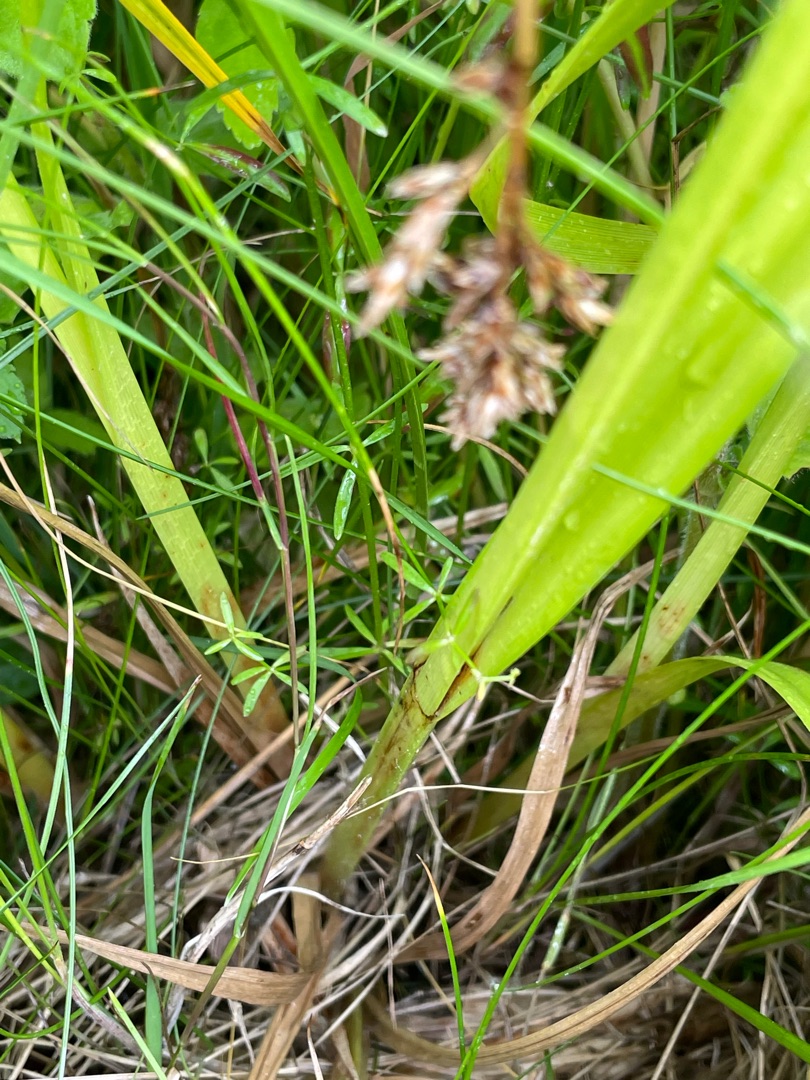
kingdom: Plantae
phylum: Tracheophyta
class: Liliopsida
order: Poales
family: Cyperaceae
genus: Carex
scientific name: Carex pseudocyperus
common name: Knippe-star
